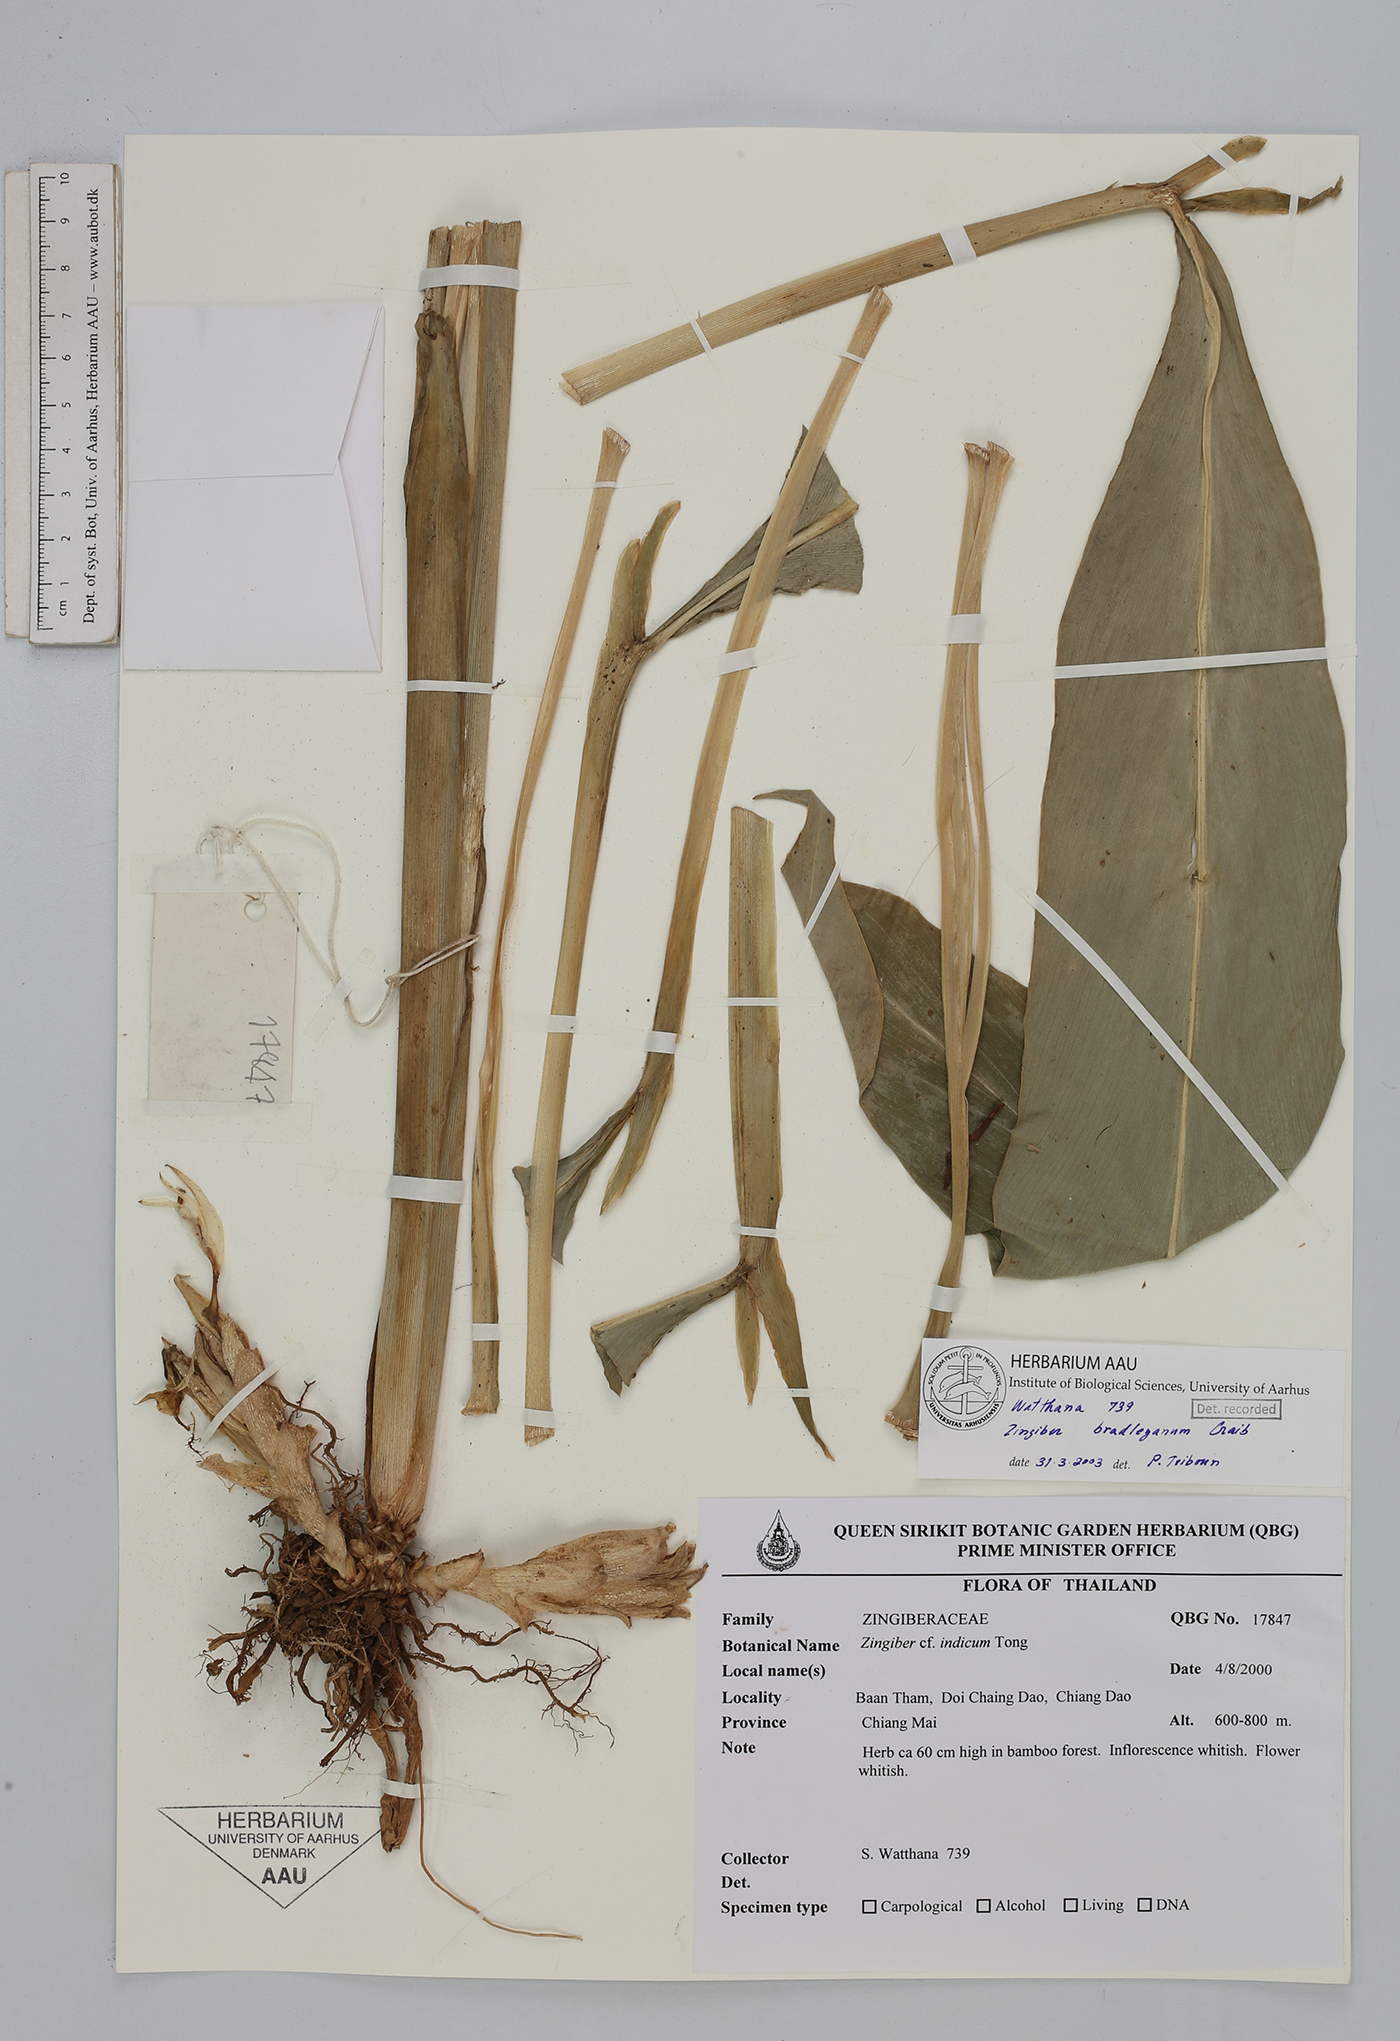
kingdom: Plantae
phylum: Tracheophyta
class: Liliopsida
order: Zingiberales
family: Zingiberaceae
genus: Zingiber
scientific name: Zingiber bradleyanum
